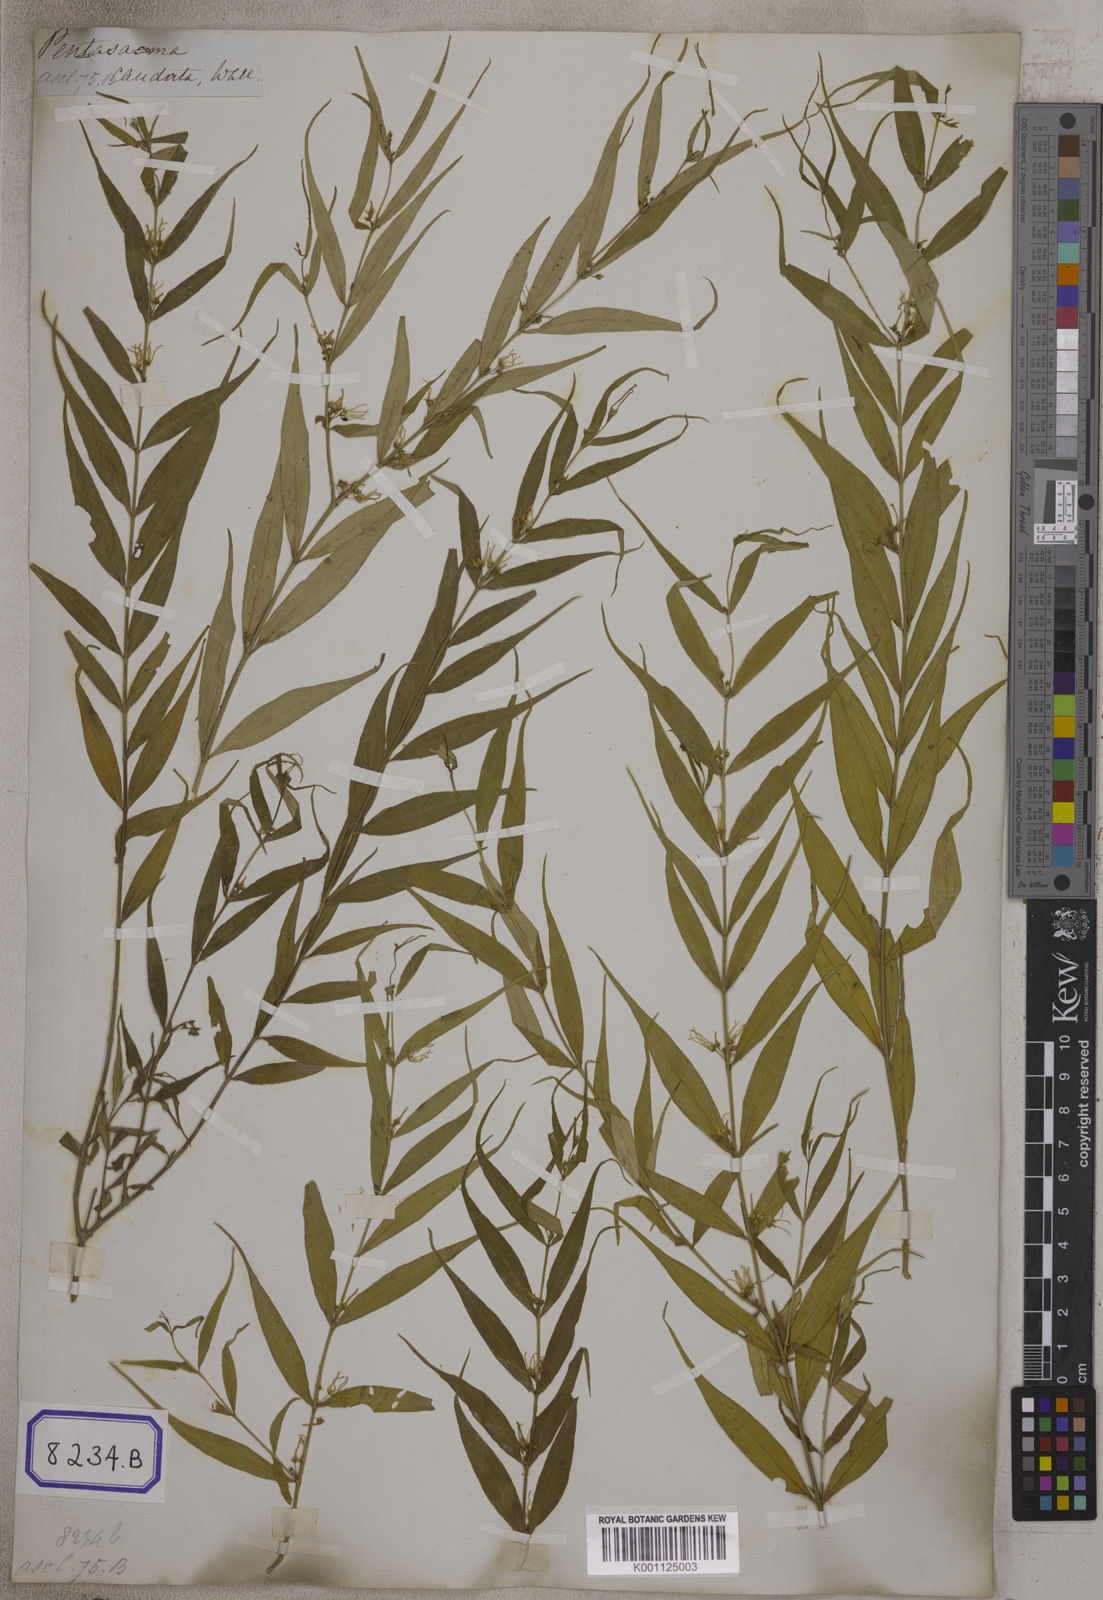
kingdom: Plantae
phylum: Tracheophyta
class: Magnoliopsida
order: Gentianales
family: Apocynaceae
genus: Pentasachme
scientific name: Pentasachme caudatum
